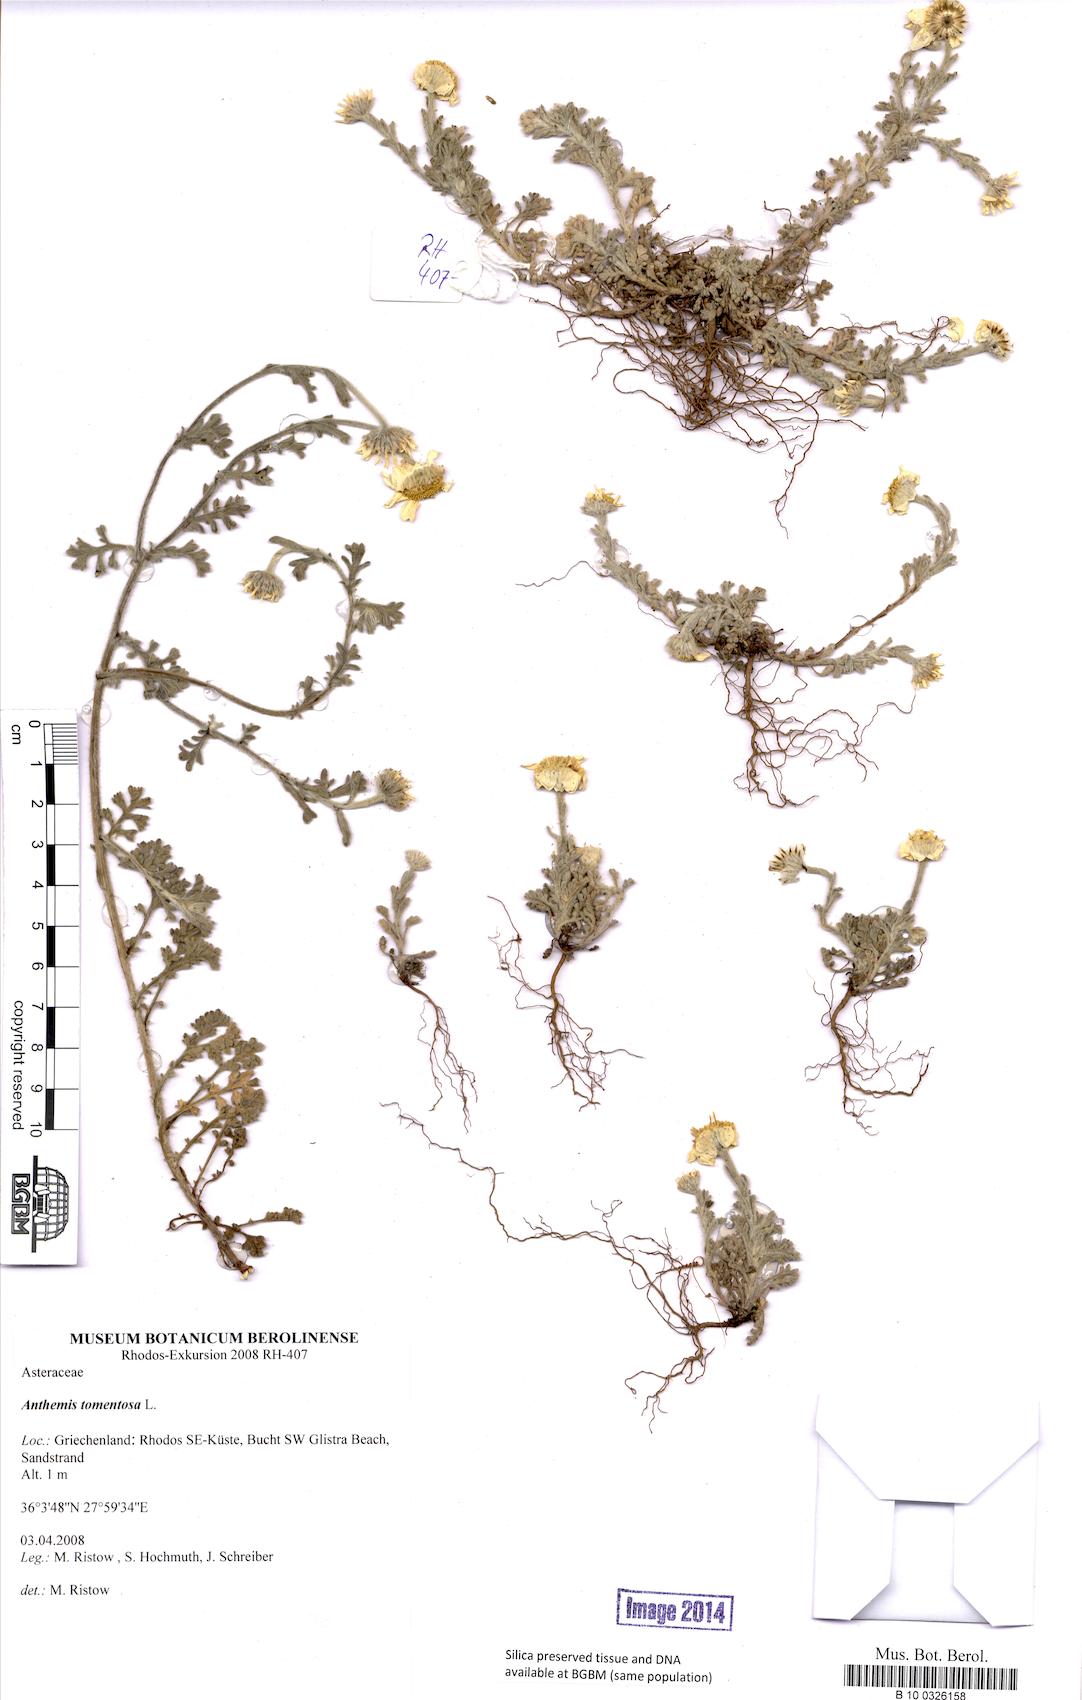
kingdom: Plantae
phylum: Tracheophyta
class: Magnoliopsida
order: Asterales
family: Asteraceae
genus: Anthemis
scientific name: Anthemis tomentosa
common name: Woolly chamomile
